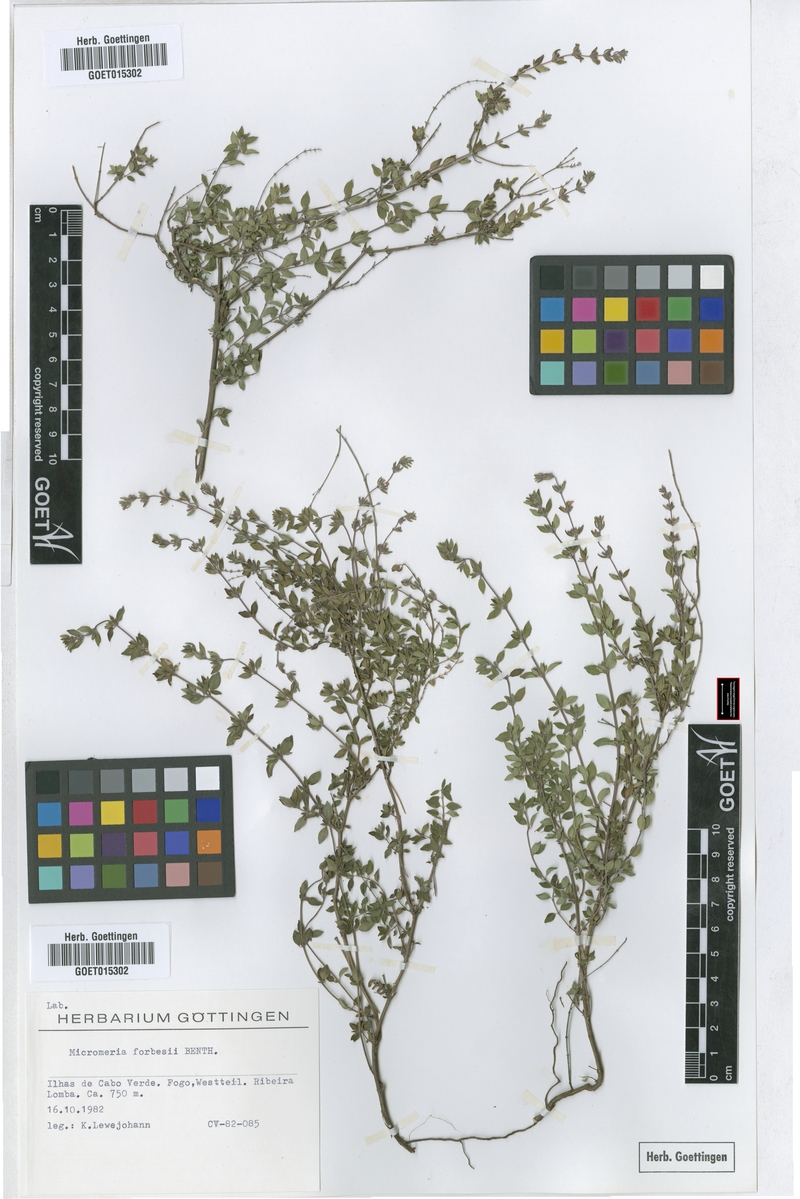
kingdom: Plantae
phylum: Tracheophyta
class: Magnoliopsida
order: Lamiales
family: Lamiaceae
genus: Micromeria
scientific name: Micromeria forbesii
